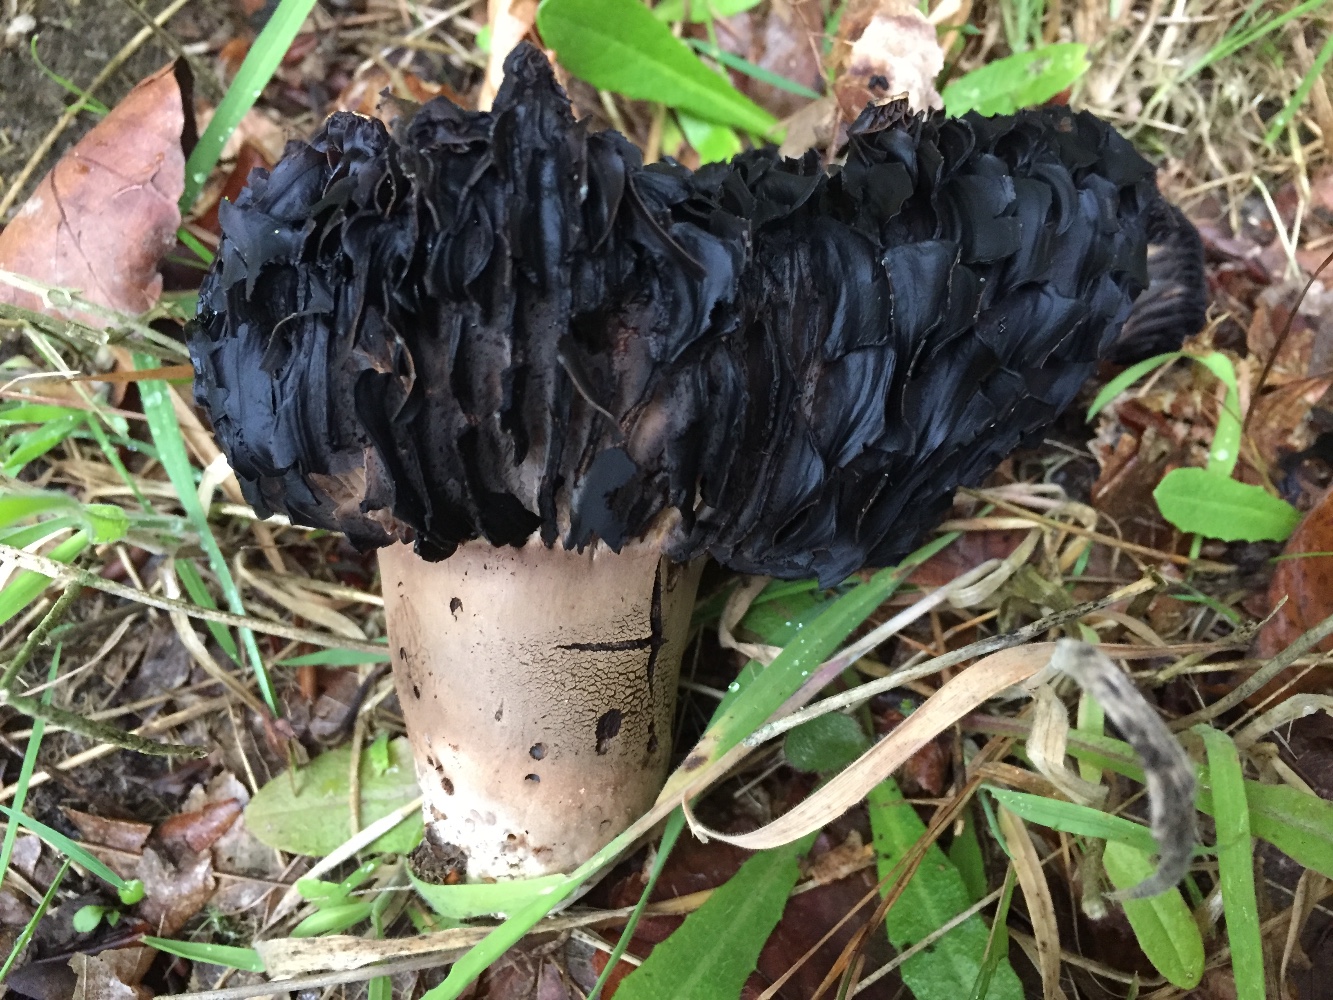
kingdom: Fungi
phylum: Basidiomycota
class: Agaricomycetes
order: Russulales
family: Russulaceae
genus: Russula
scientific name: Russula adusta
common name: sværtende skørhat
